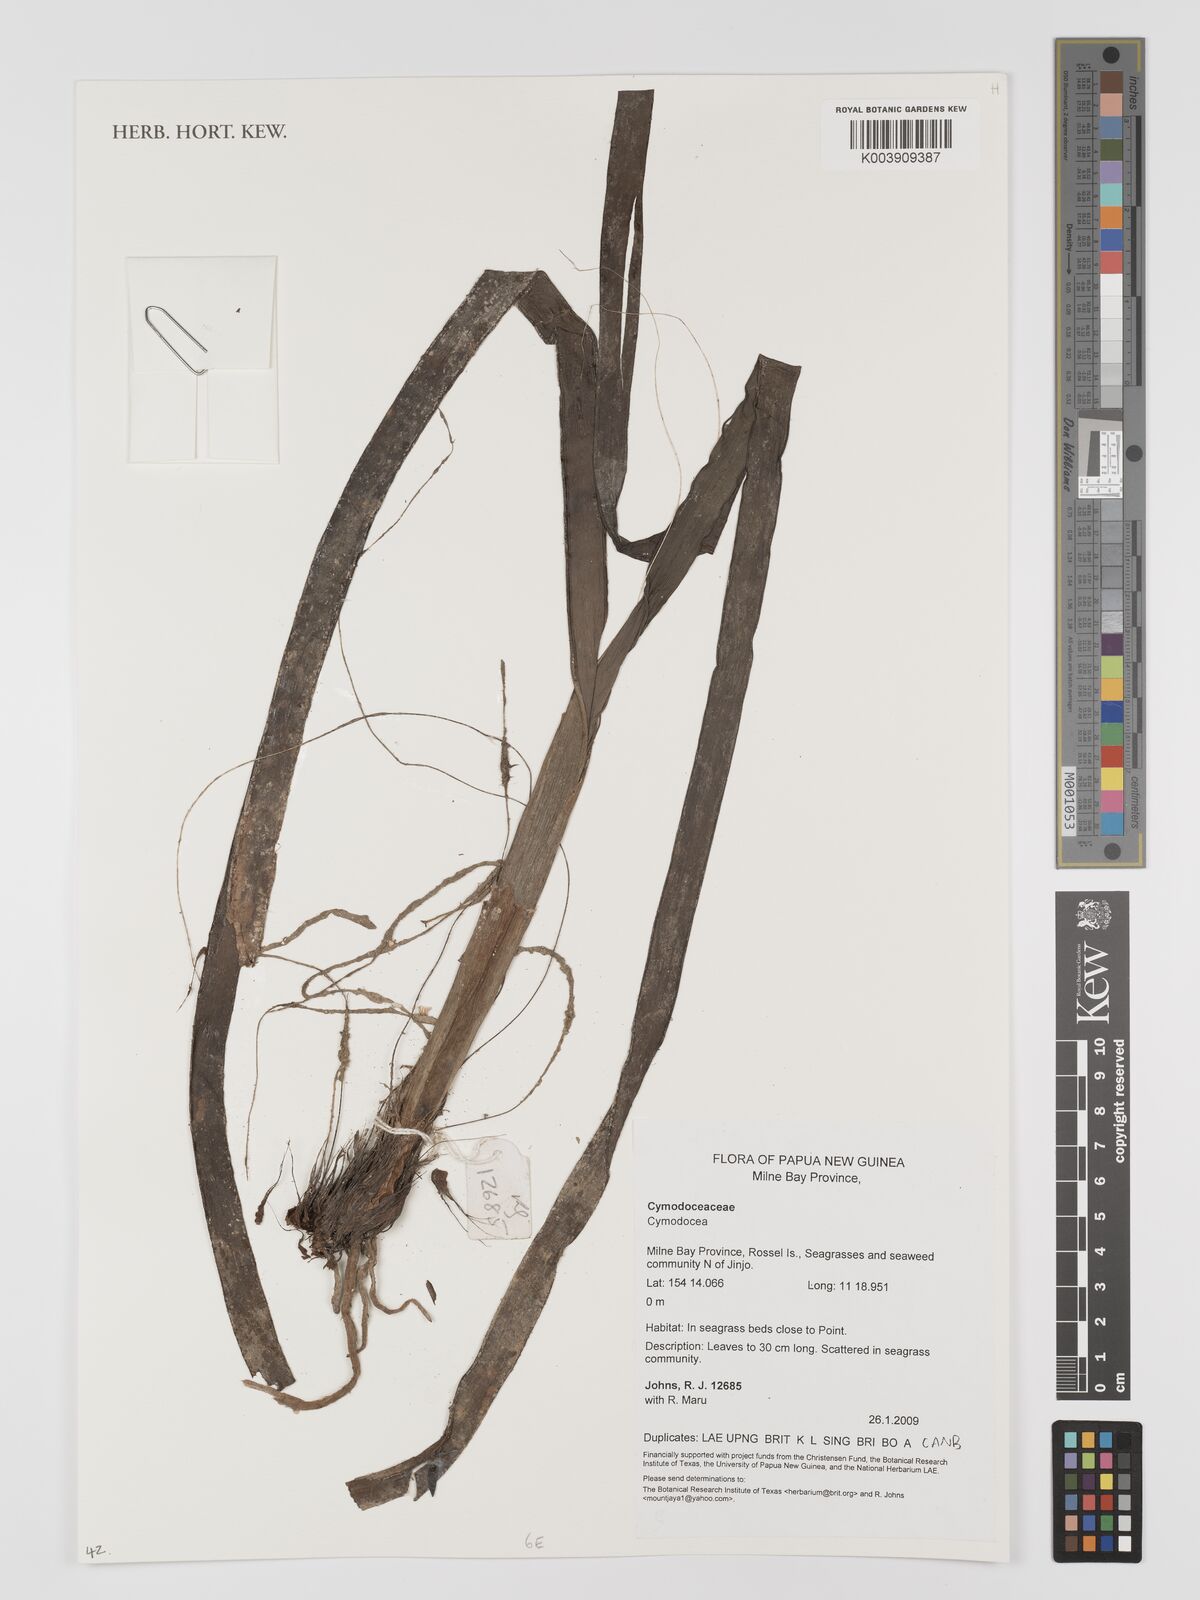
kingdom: Plantae
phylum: Tracheophyta
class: Liliopsida
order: Alismatales
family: Cymodoceaceae
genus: Cymodocea
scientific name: Cymodocea
